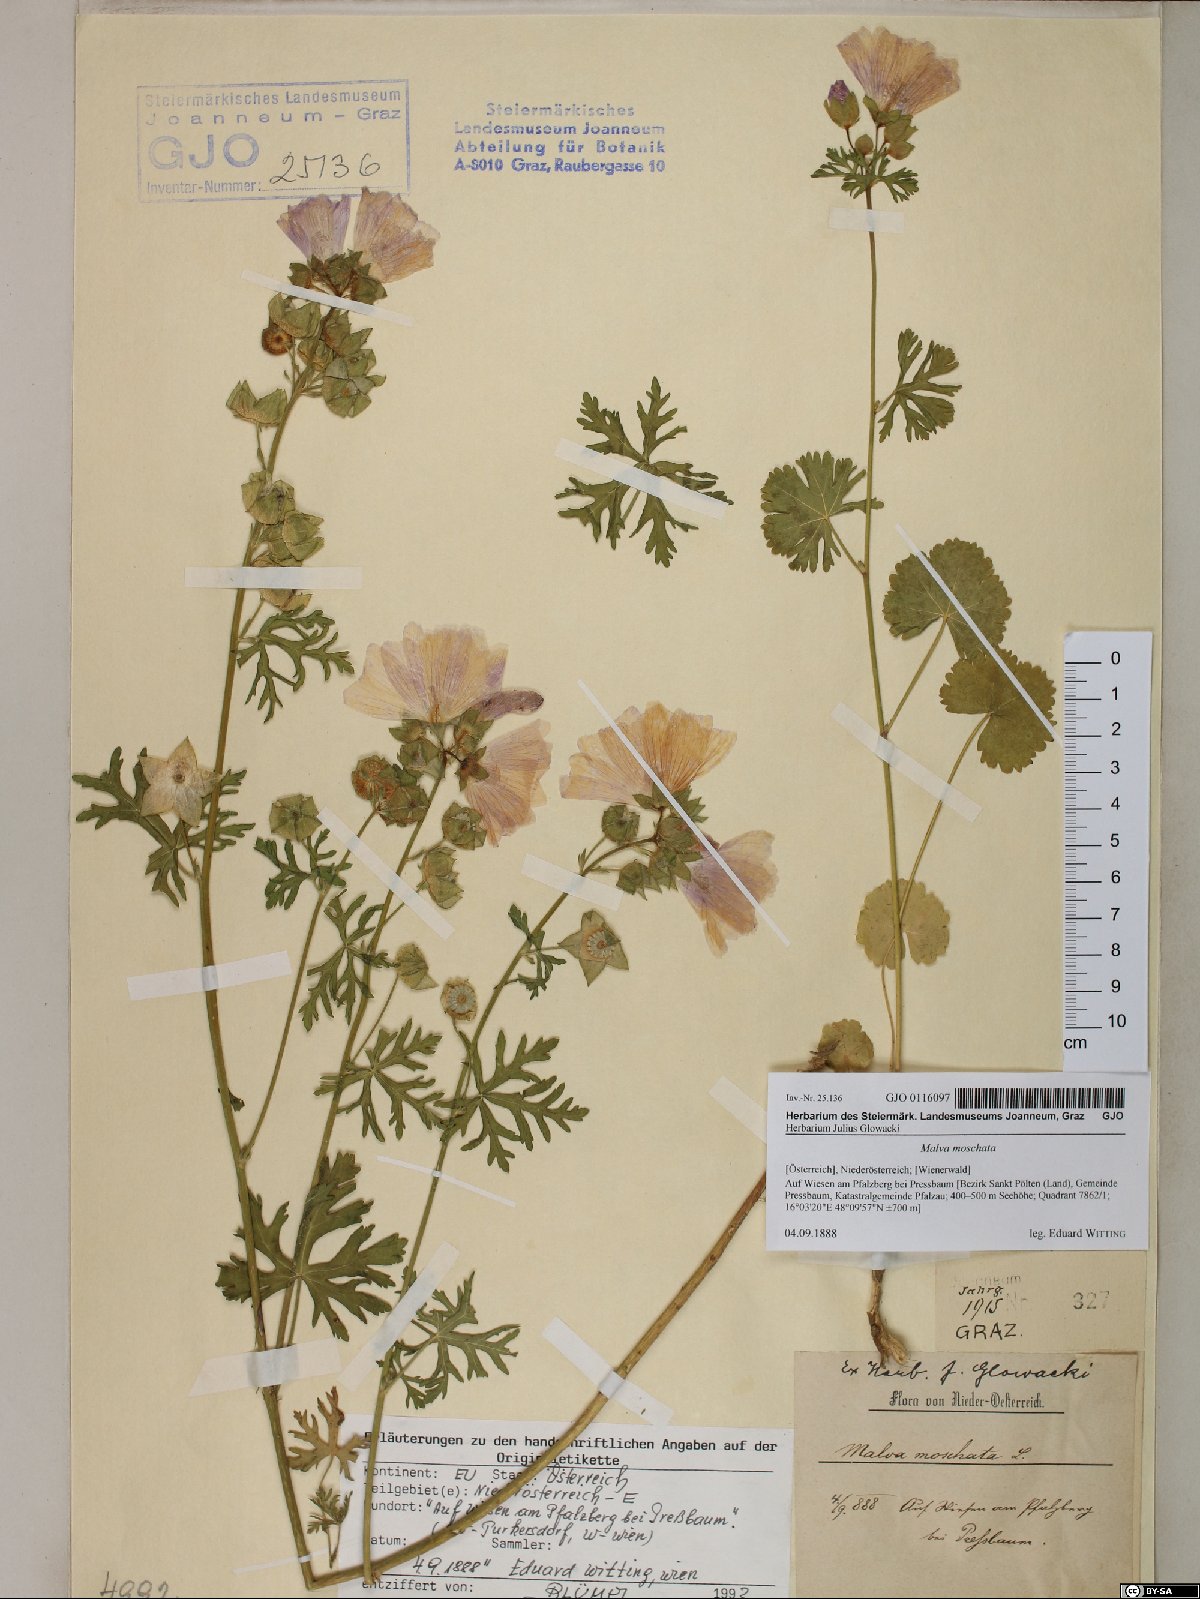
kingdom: Plantae
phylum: Tracheophyta
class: Magnoliopsida
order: Malvales
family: Malvaceae
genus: Malva
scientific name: Malva moschata
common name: Musk mallow
